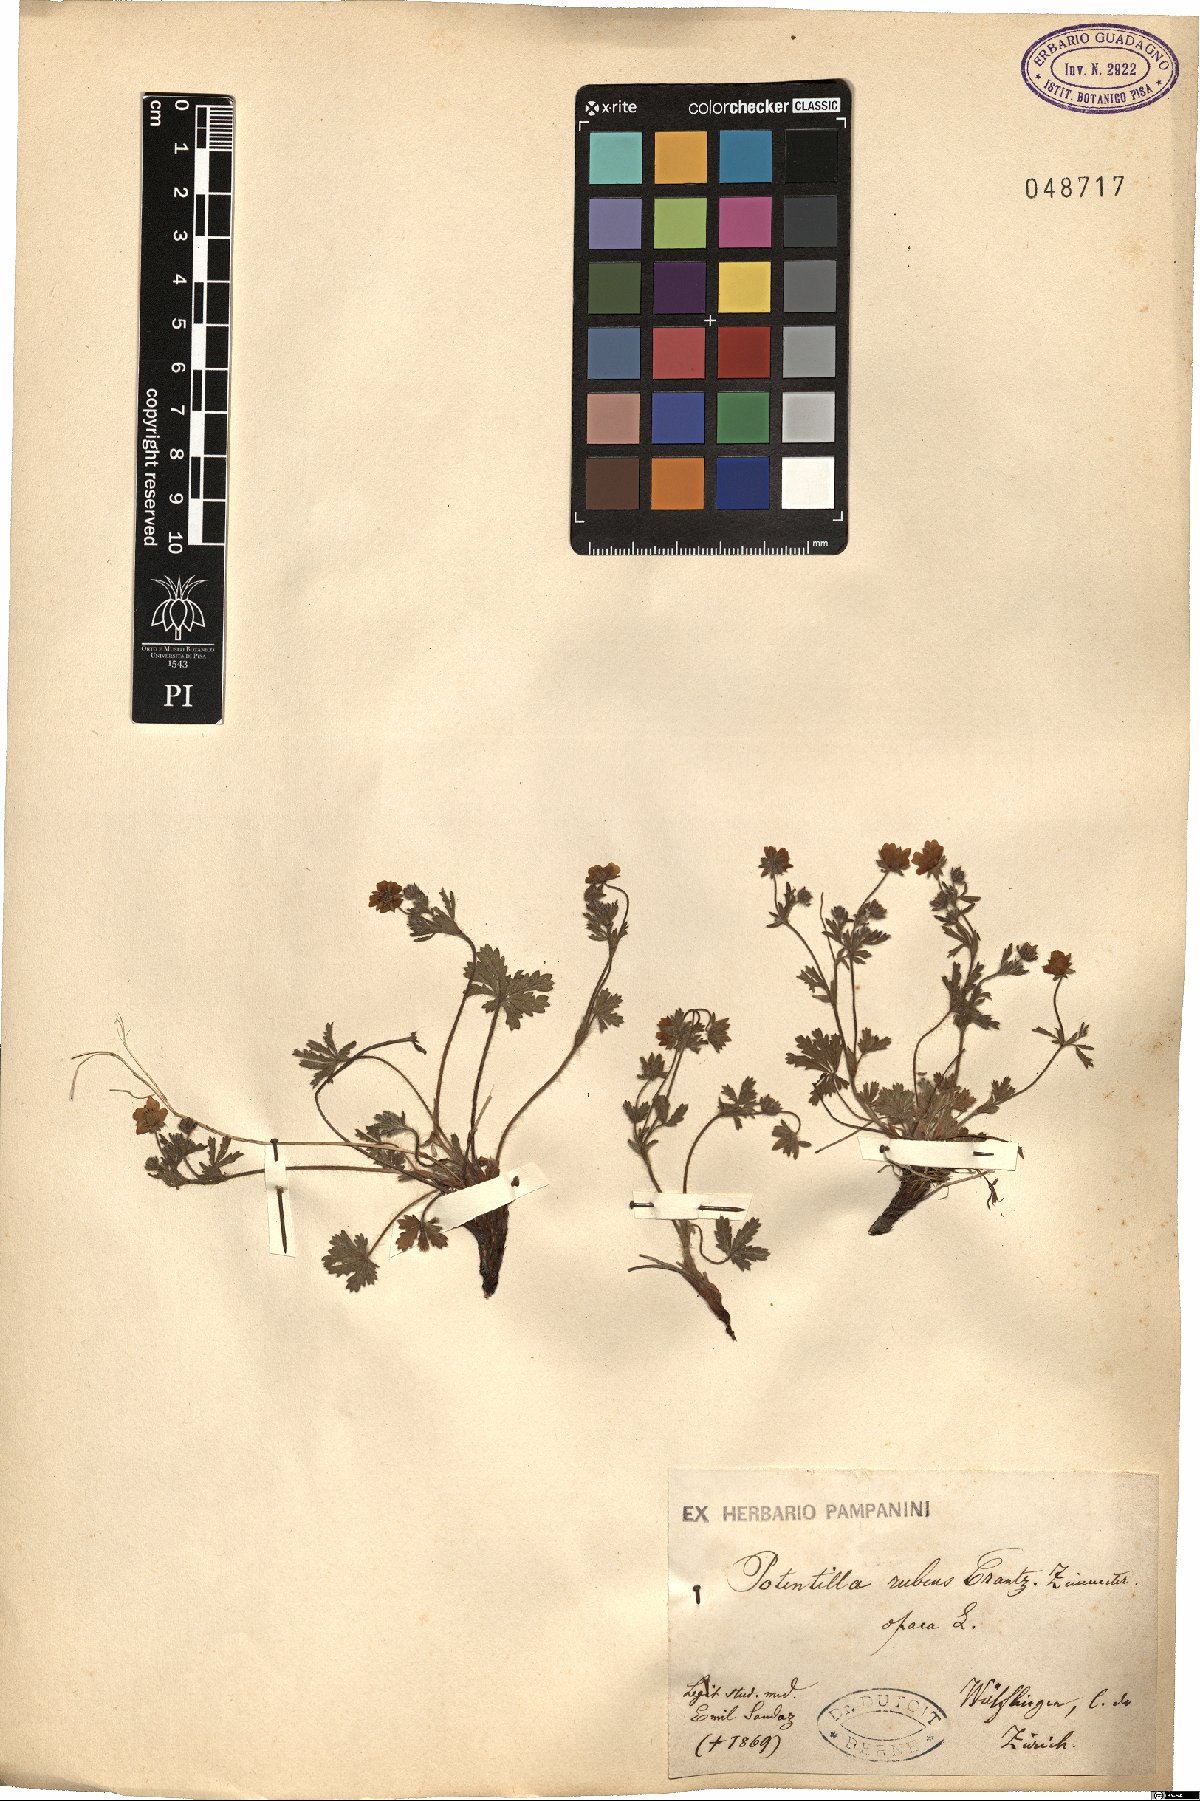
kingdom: Plantae
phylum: Tracheophyta
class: Magnoliopsida
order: Rosales
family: Rosaceae
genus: Potentilla
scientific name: Potentilla heptaphylla
